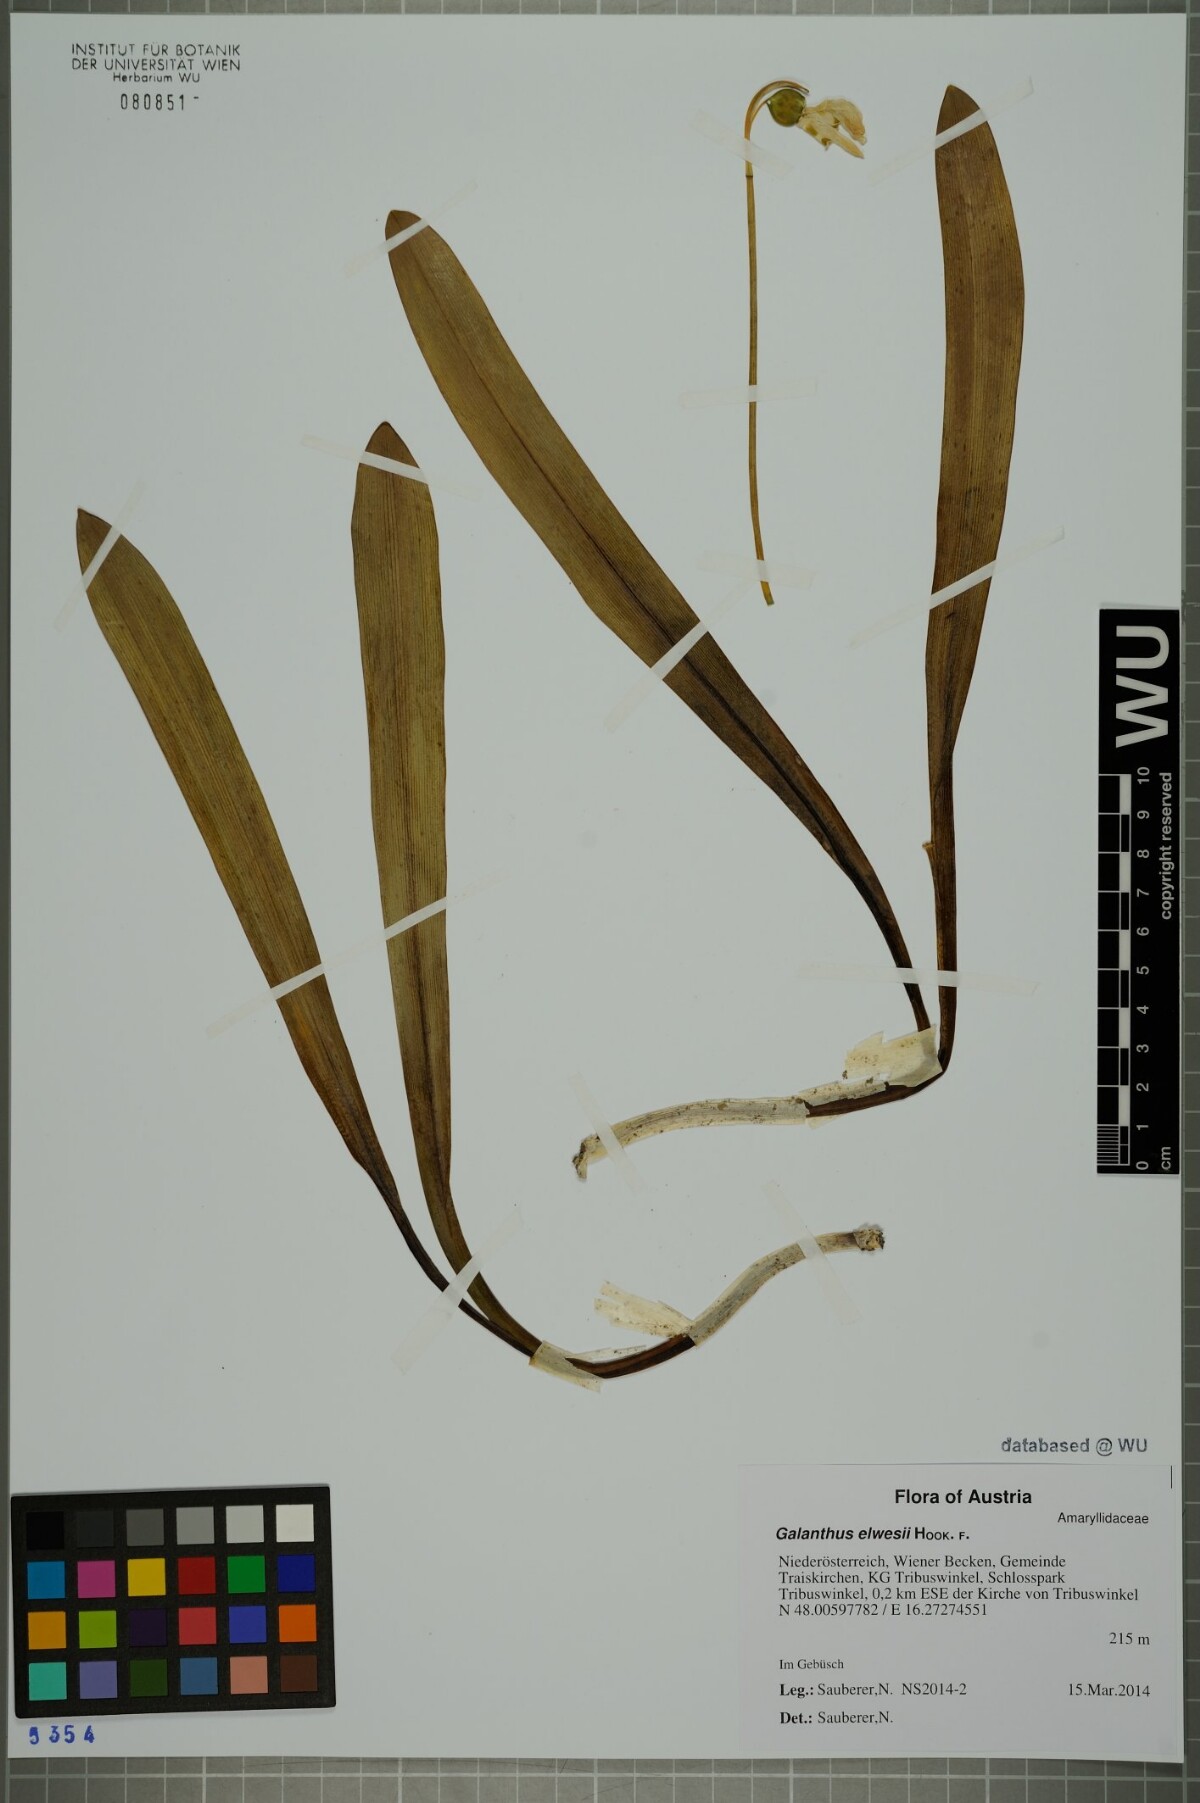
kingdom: Plantae
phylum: Tracheophyta
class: Liliopsida
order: Asparagales
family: Amaryllidaceae
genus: Galanthus
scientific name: Galanthus elwesii
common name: Greater snowdrop
